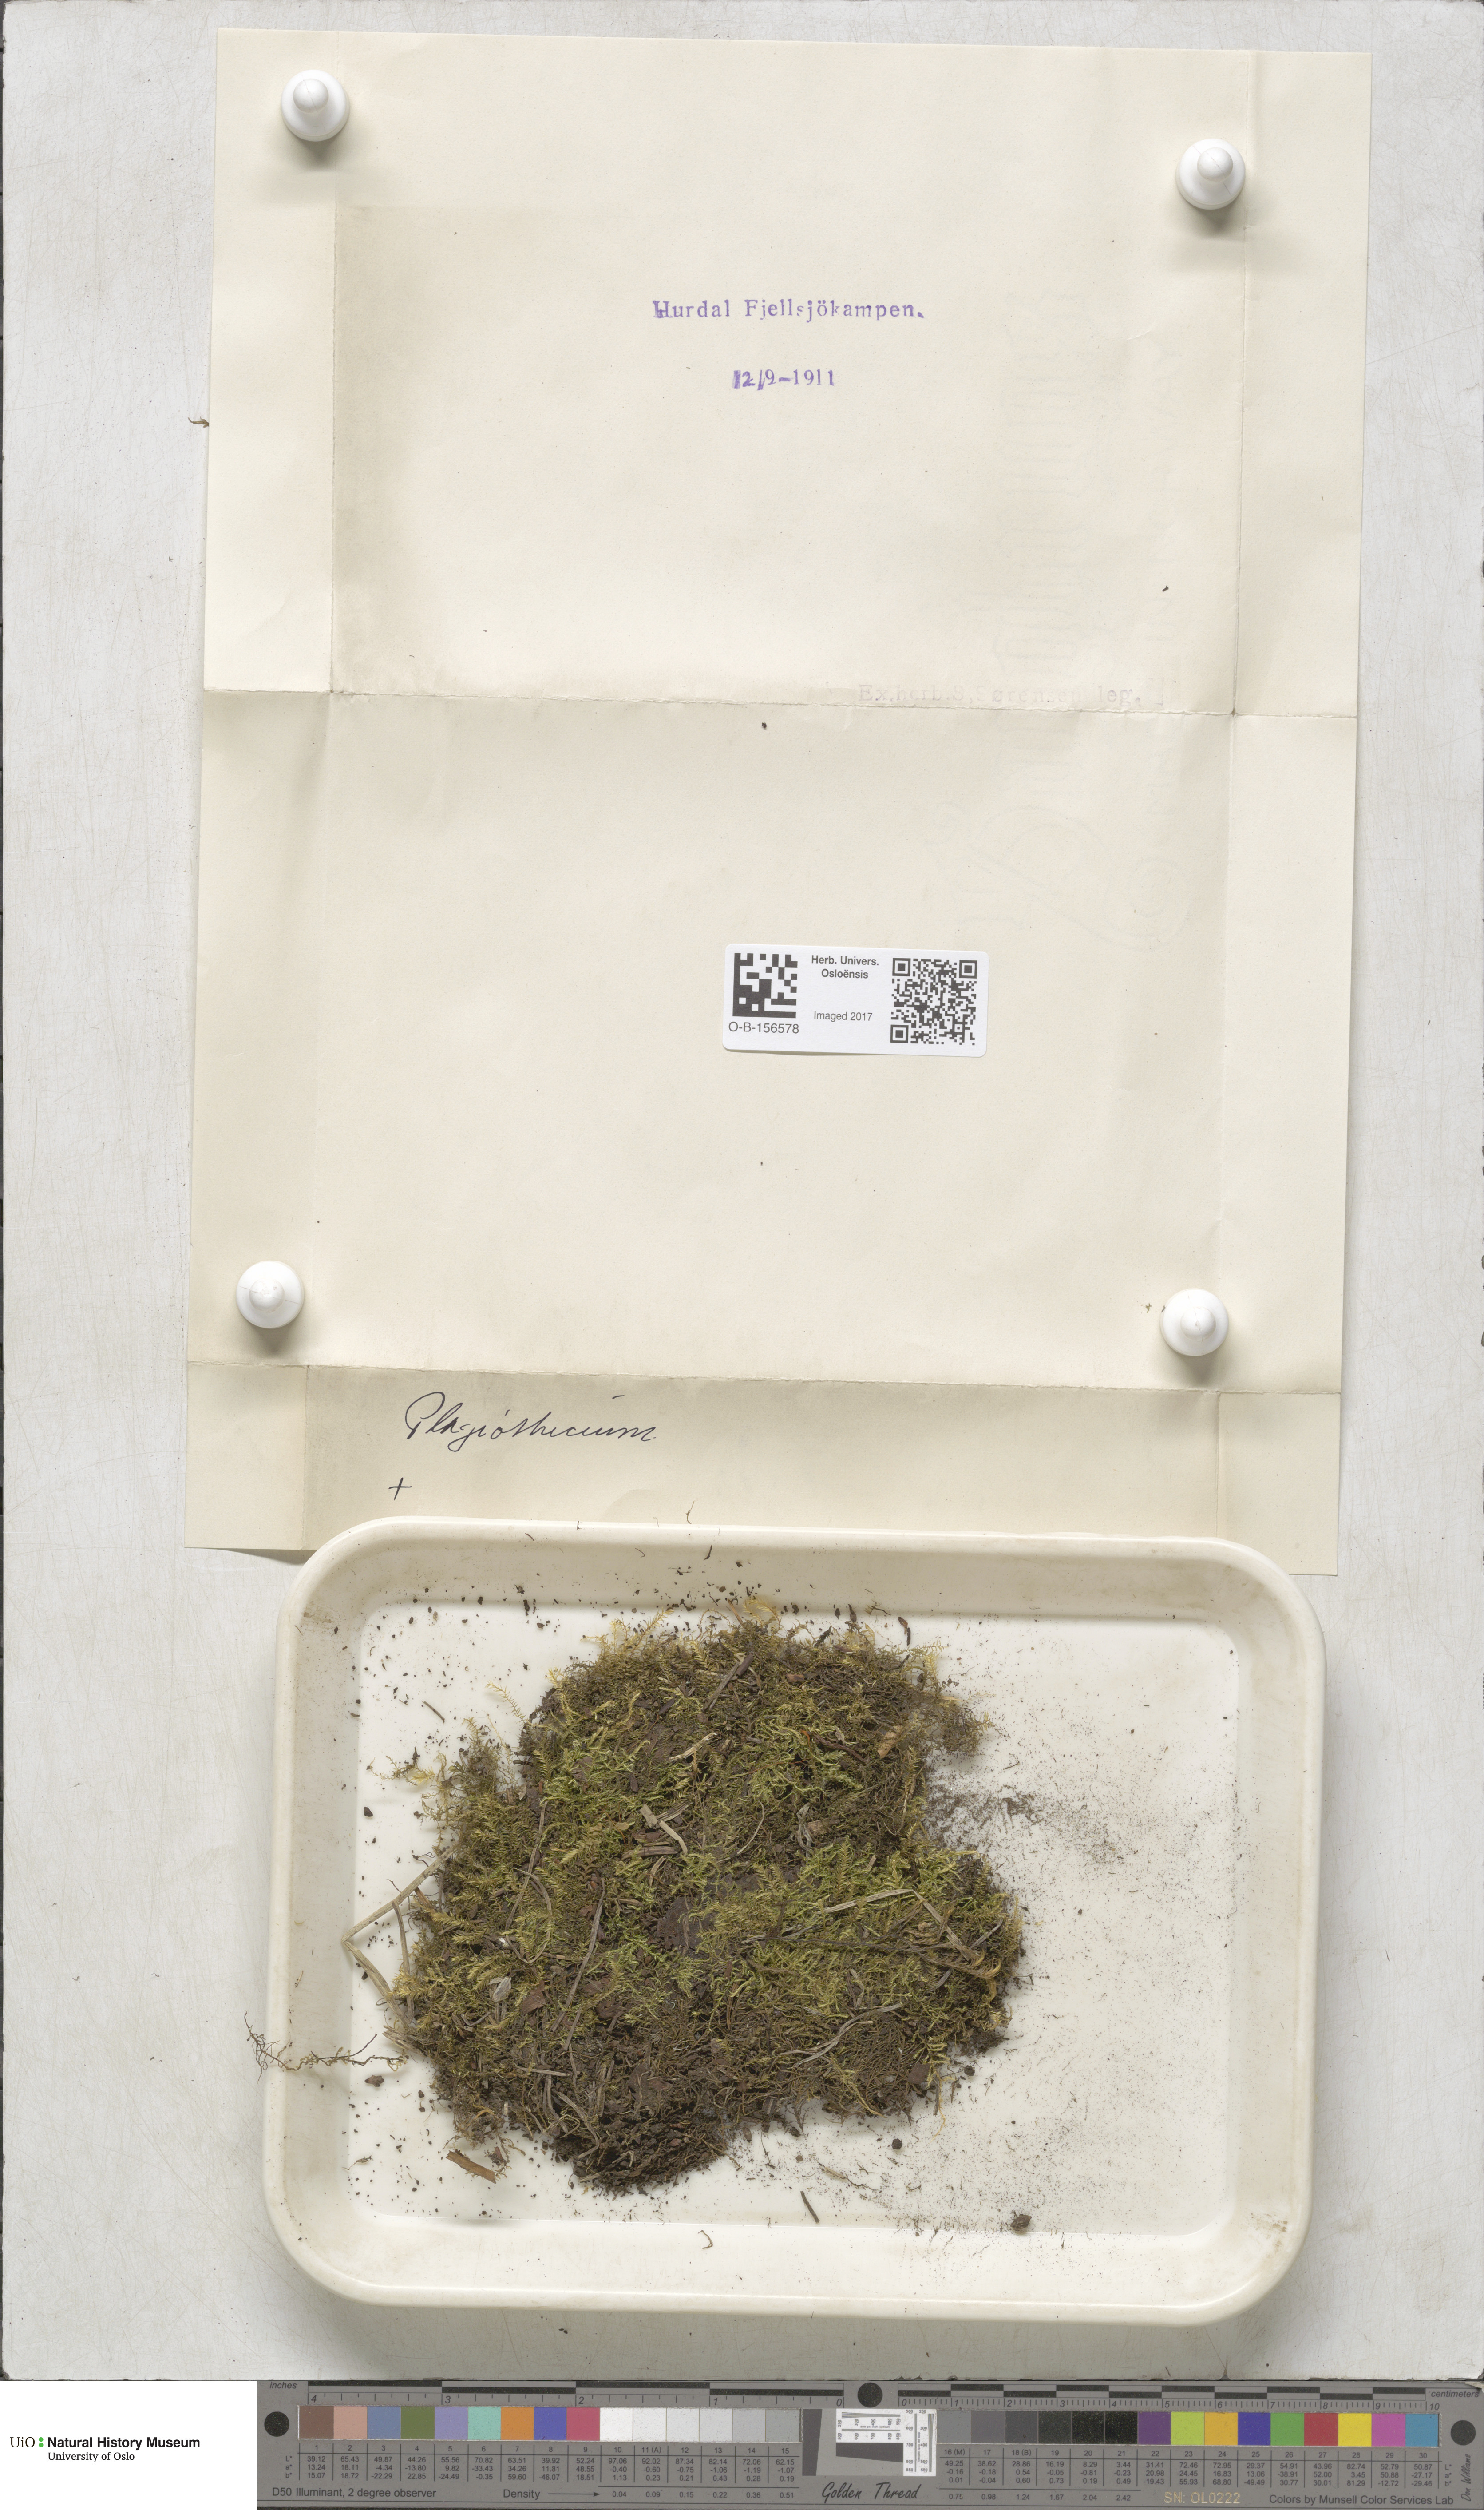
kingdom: Plantae
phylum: Bryophyta
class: Bryopsida
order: Hypnales
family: Plagiotheciaceae
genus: Plagiothecium
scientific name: Plagiothecium
